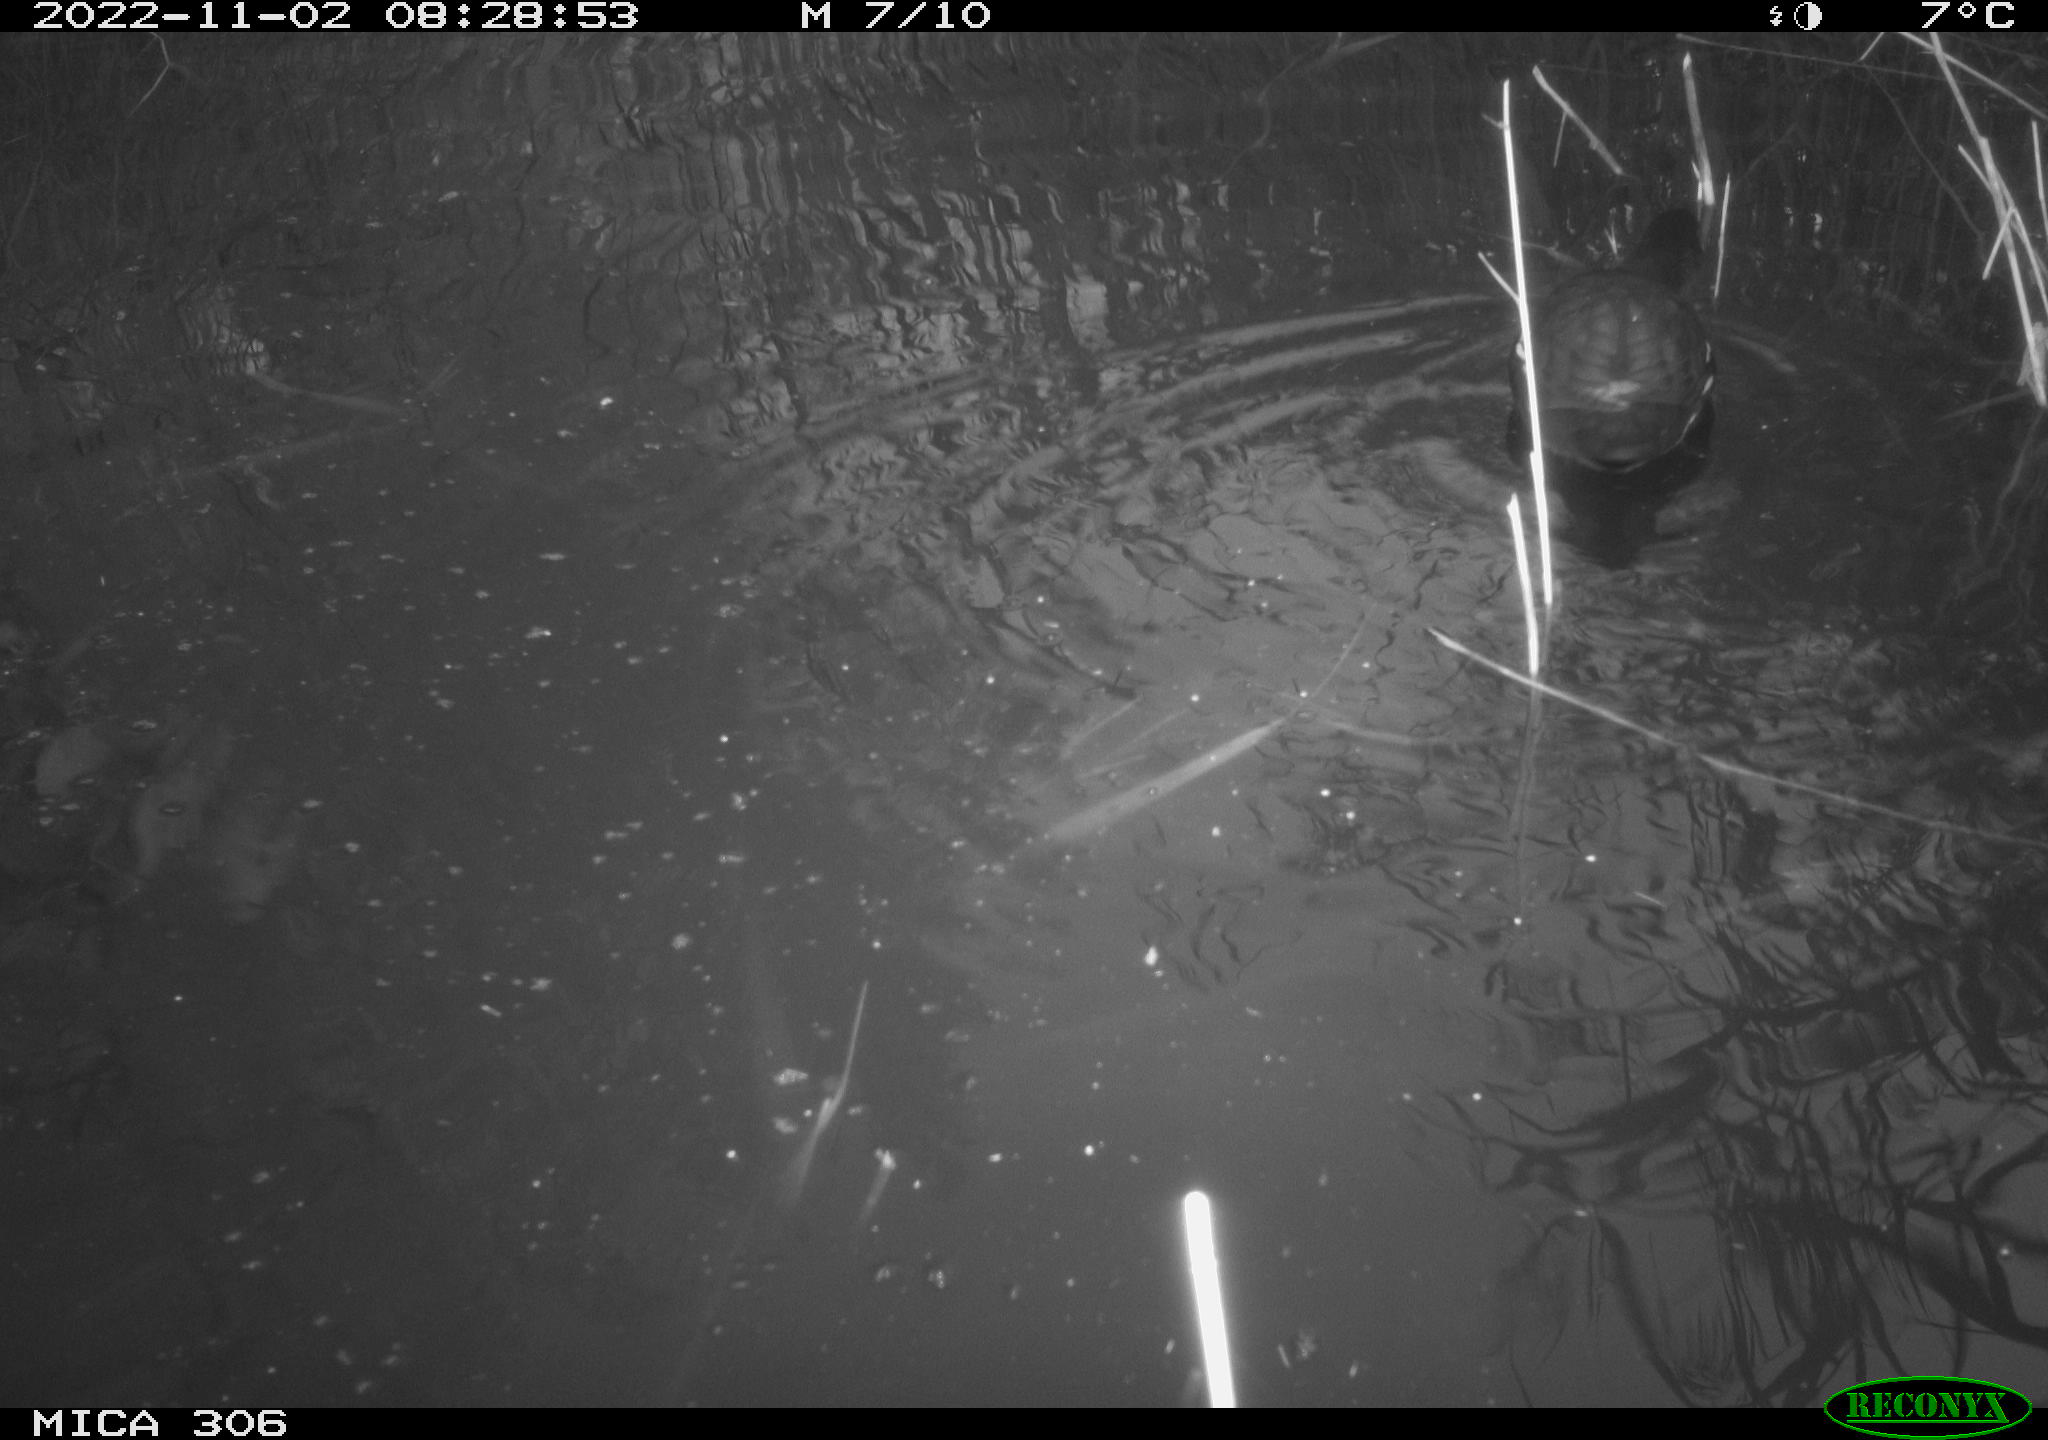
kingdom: Animalia
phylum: Chordata
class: Aves
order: Gruiformes
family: Rallidae
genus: Gallinula
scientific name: Gallinula chloropus
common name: Common moorhen
